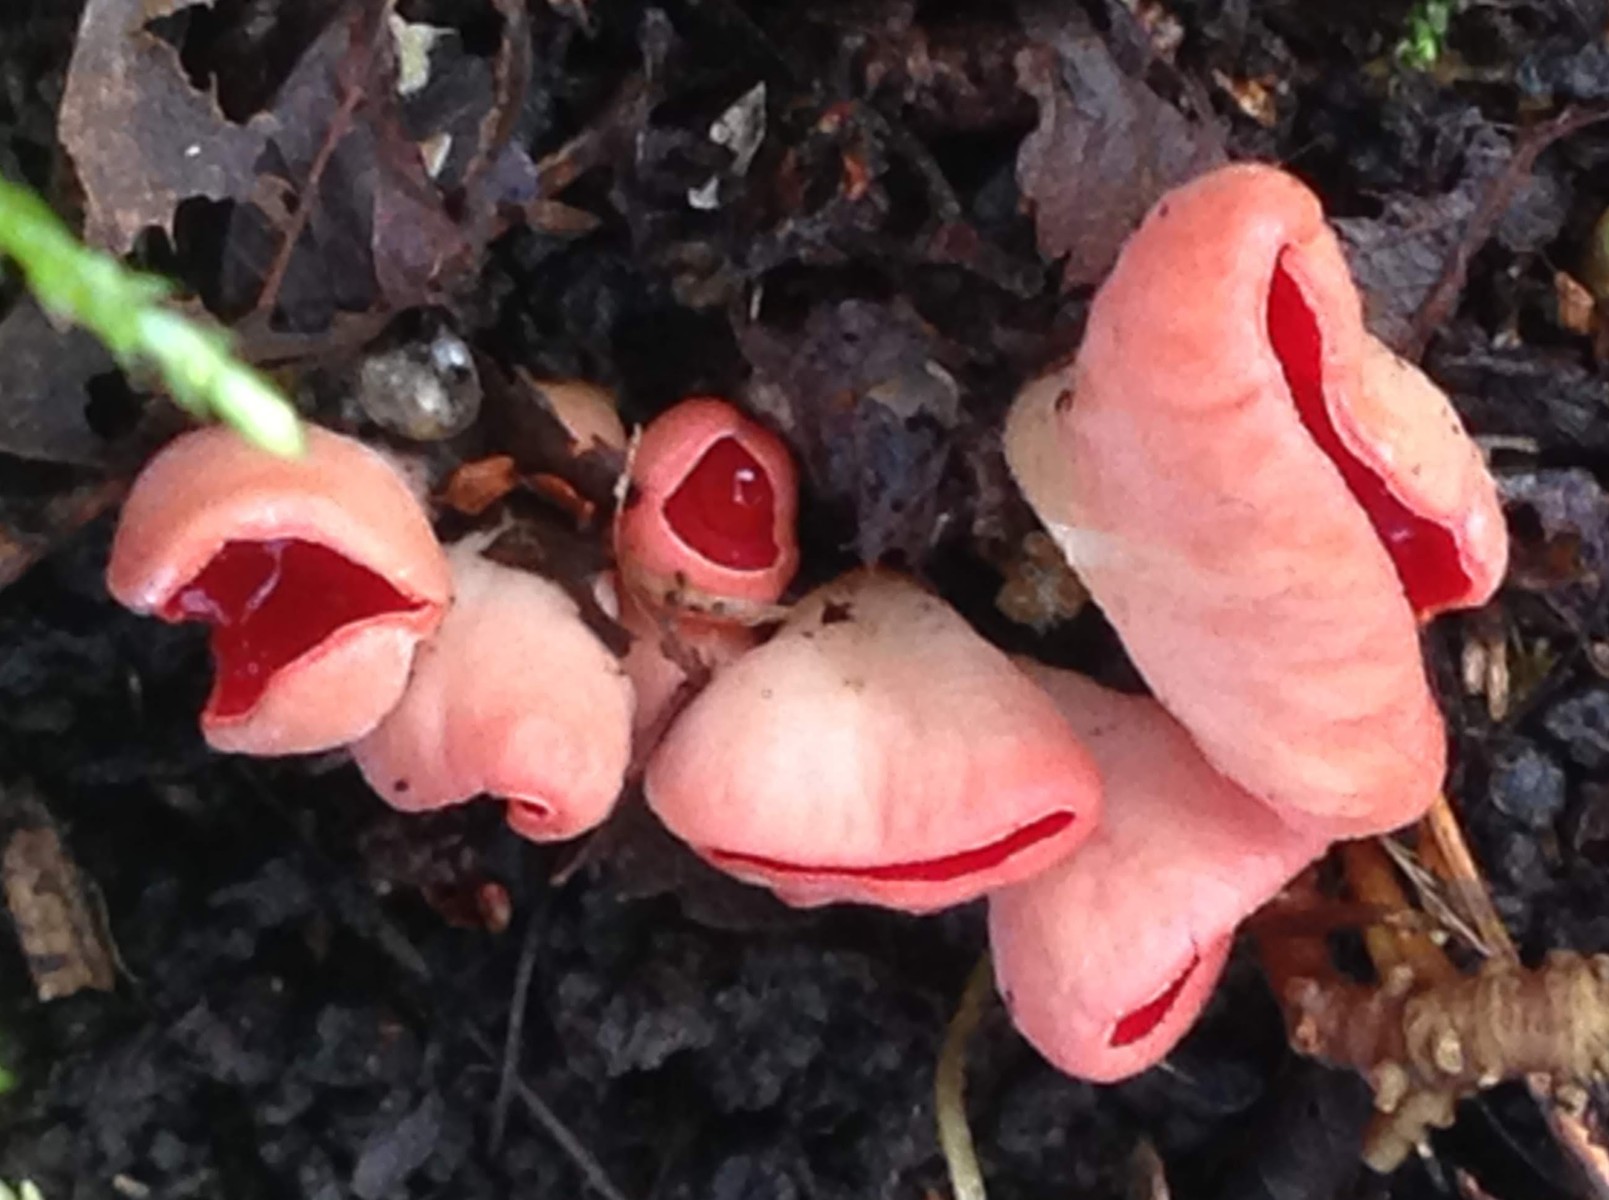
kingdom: Fungi
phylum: Ascomycota
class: Pezizomycetes
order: Pezizales
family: Sarcoscyphaceae
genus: Sarcoscypha
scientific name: Sarcoscypha austriaca
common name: krølhåret pragtbæger
